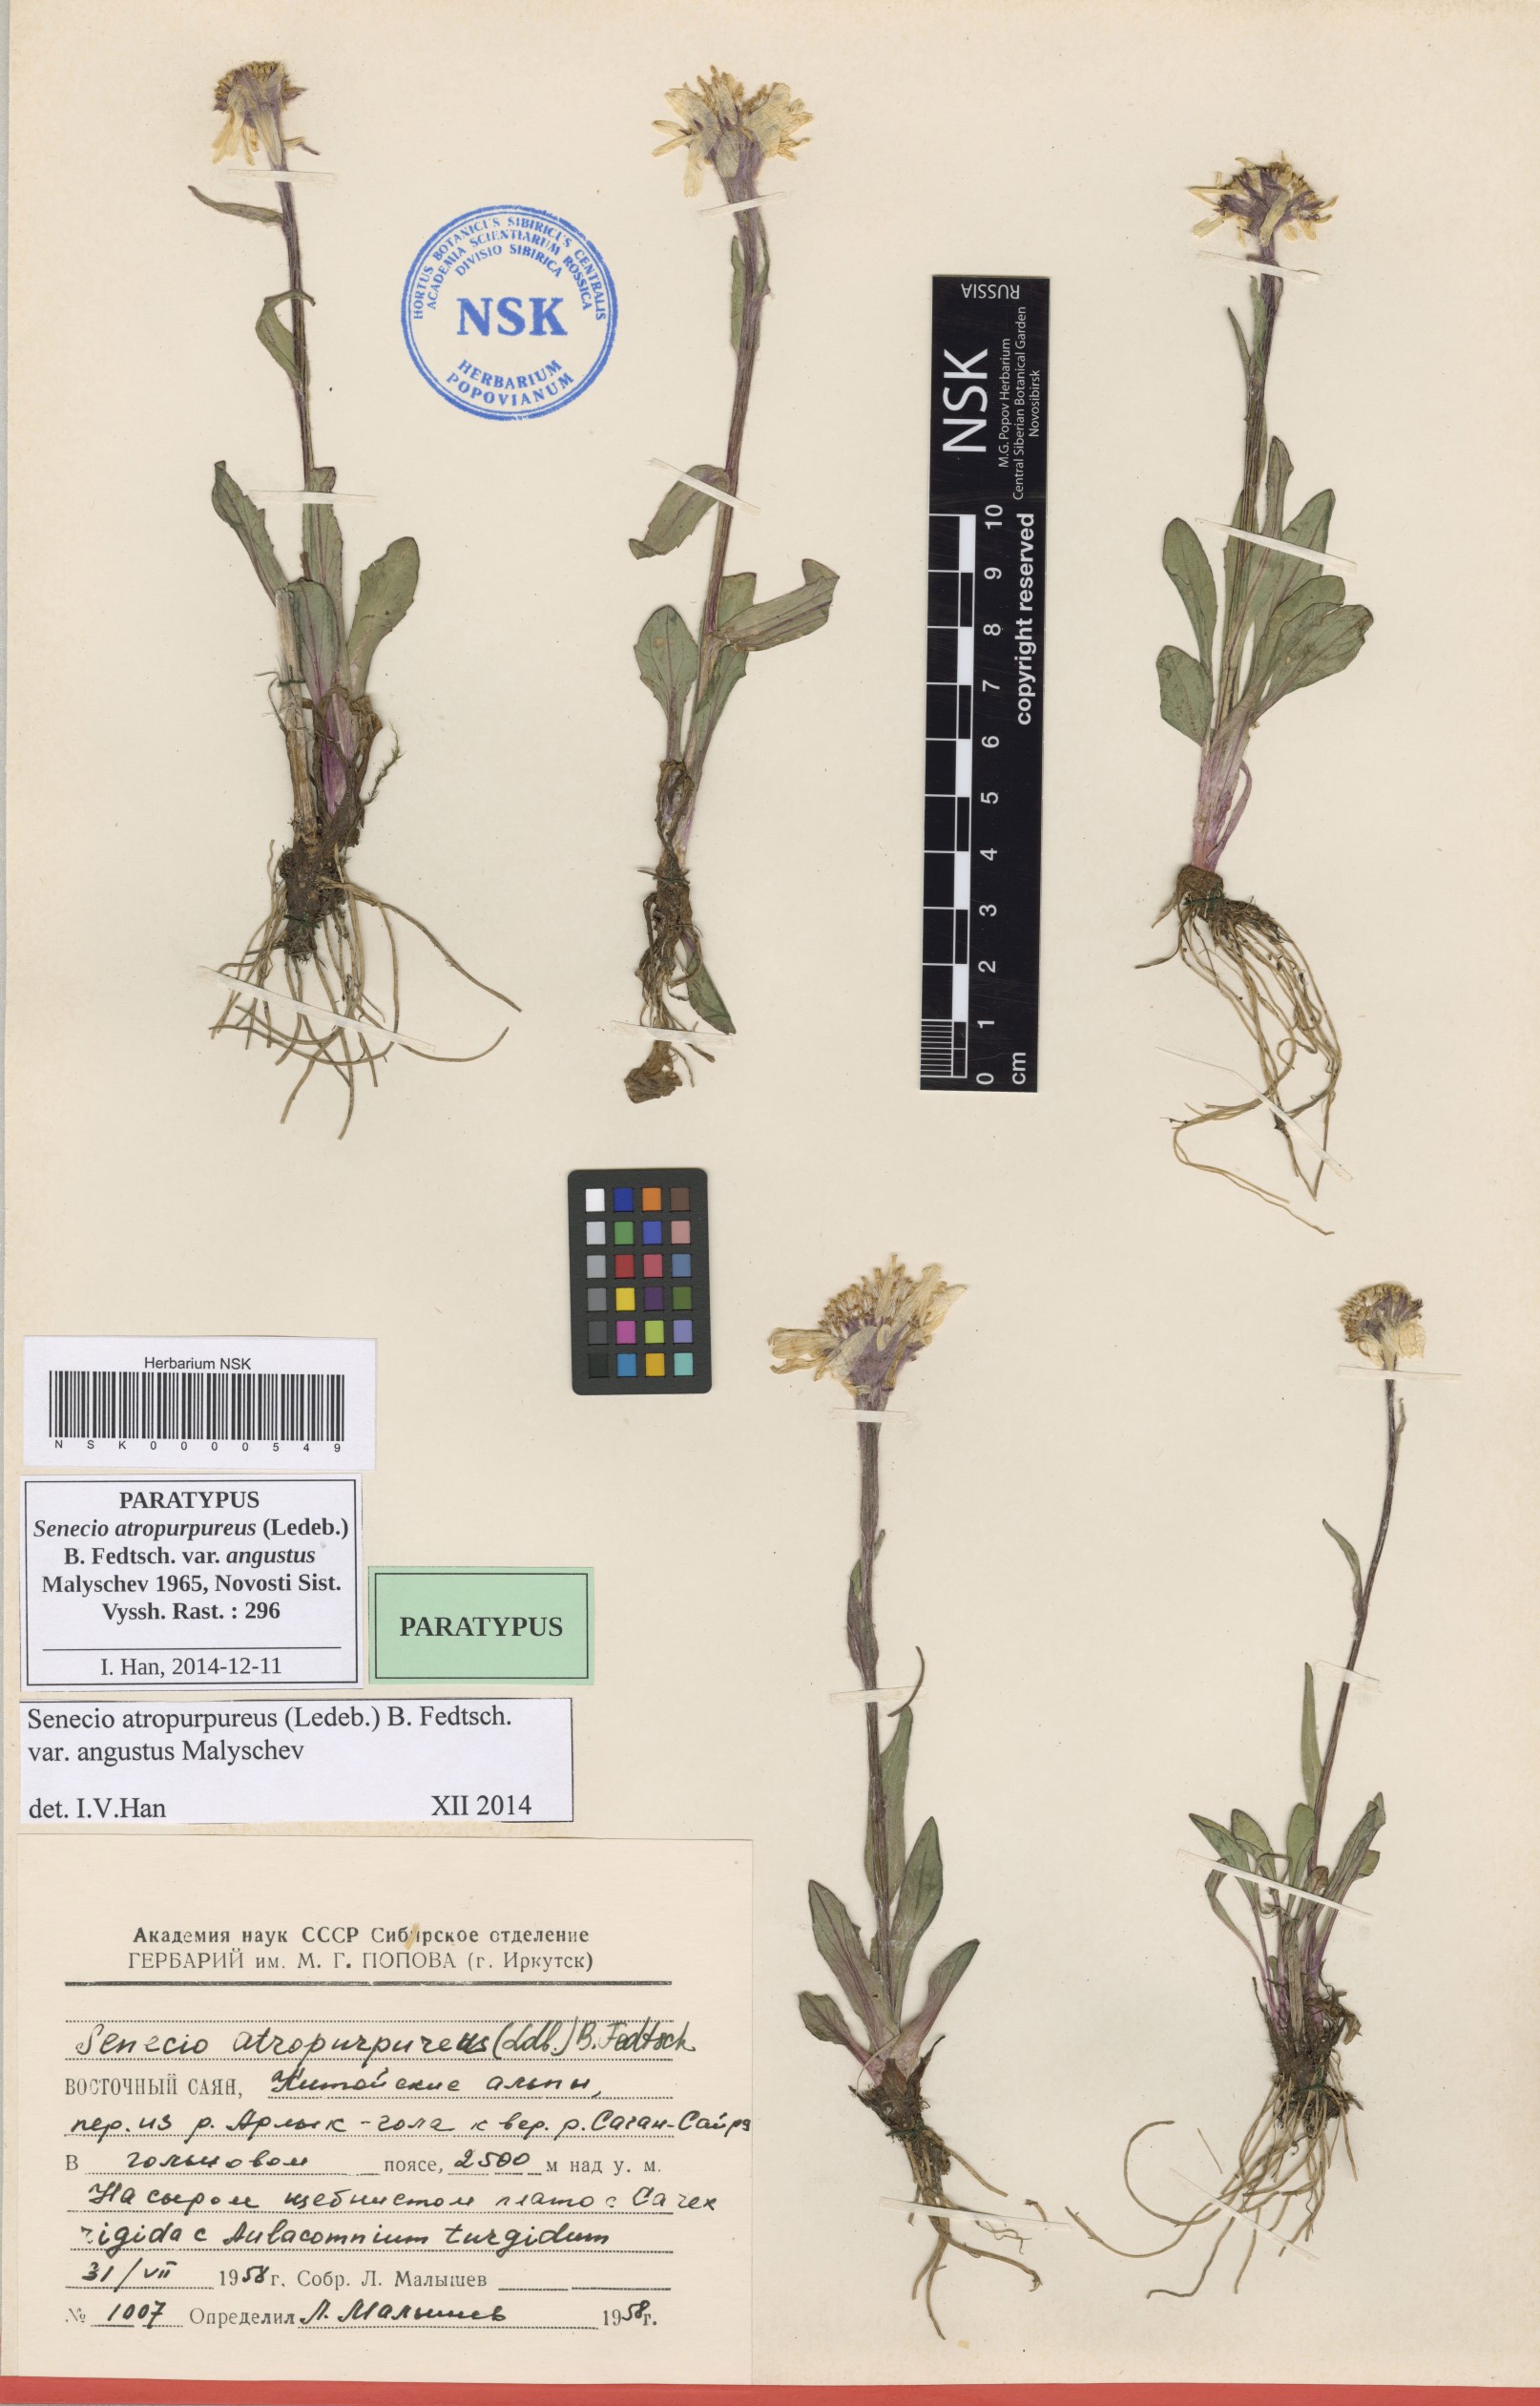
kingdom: Plantae
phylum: Tracheophyta
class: Magnoliopsida
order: Asterales
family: Asteraceae
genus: Tephroseris
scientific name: Tephroseris integrifolia
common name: Field fleawort
